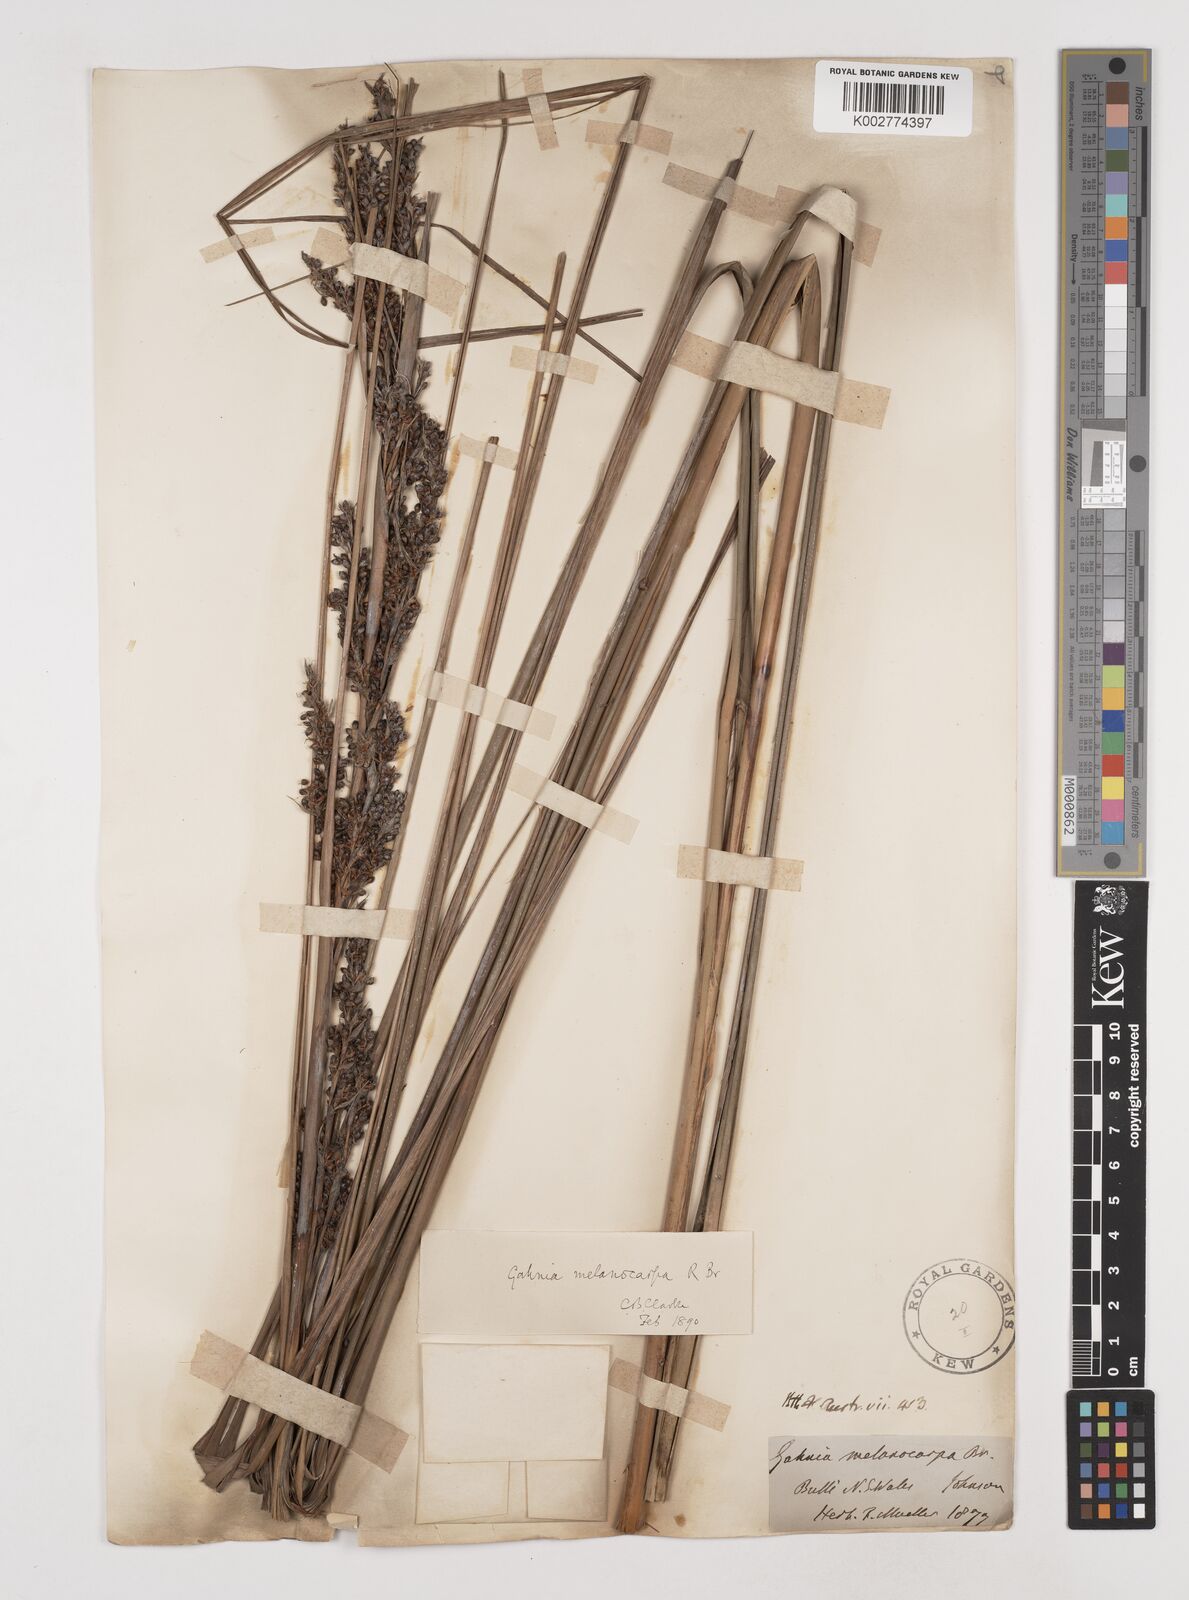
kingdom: Plantae
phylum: Tracheophyta
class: Liliopsida
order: Poales
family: Cyperaceae
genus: Gahnia
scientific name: Gahnia melanocarpa
